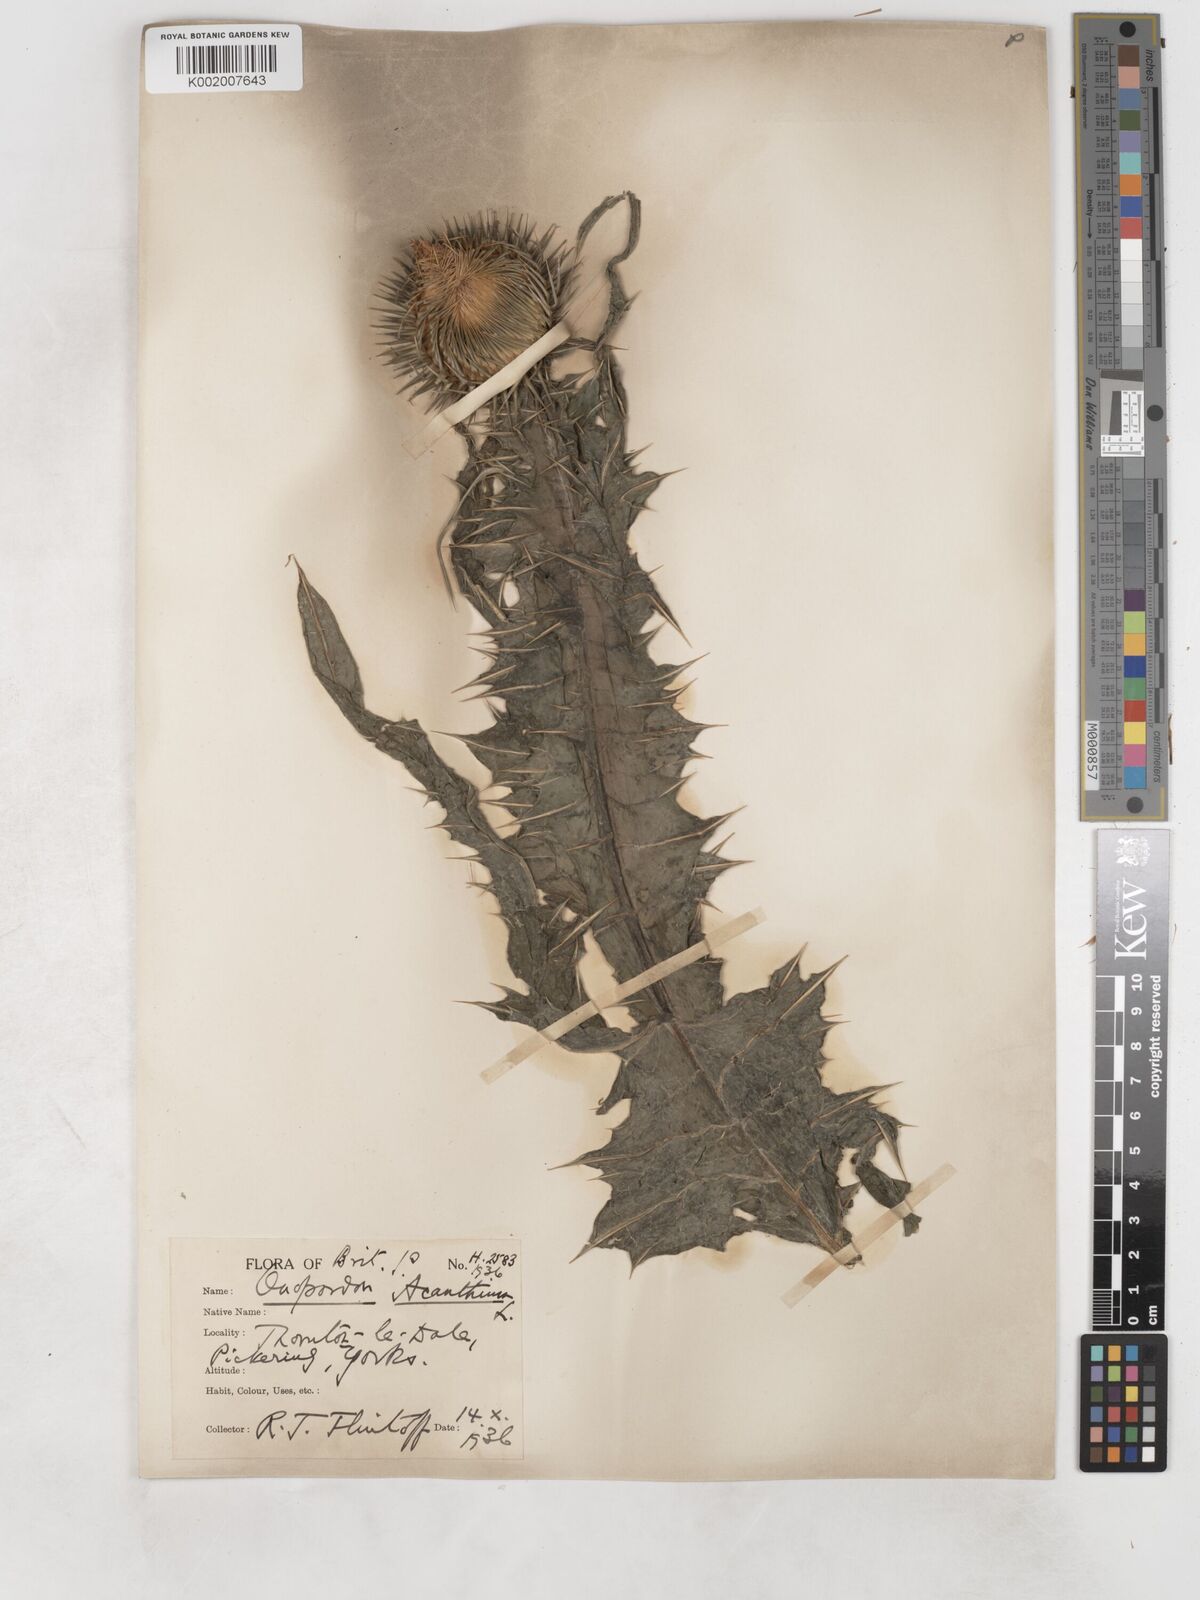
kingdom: Plantae
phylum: Tracheophyta
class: Magnoliopsida
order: Asterales
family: Asteraceae
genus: Onopordum
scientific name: Onopordum acanthium
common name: Scotch thistle
